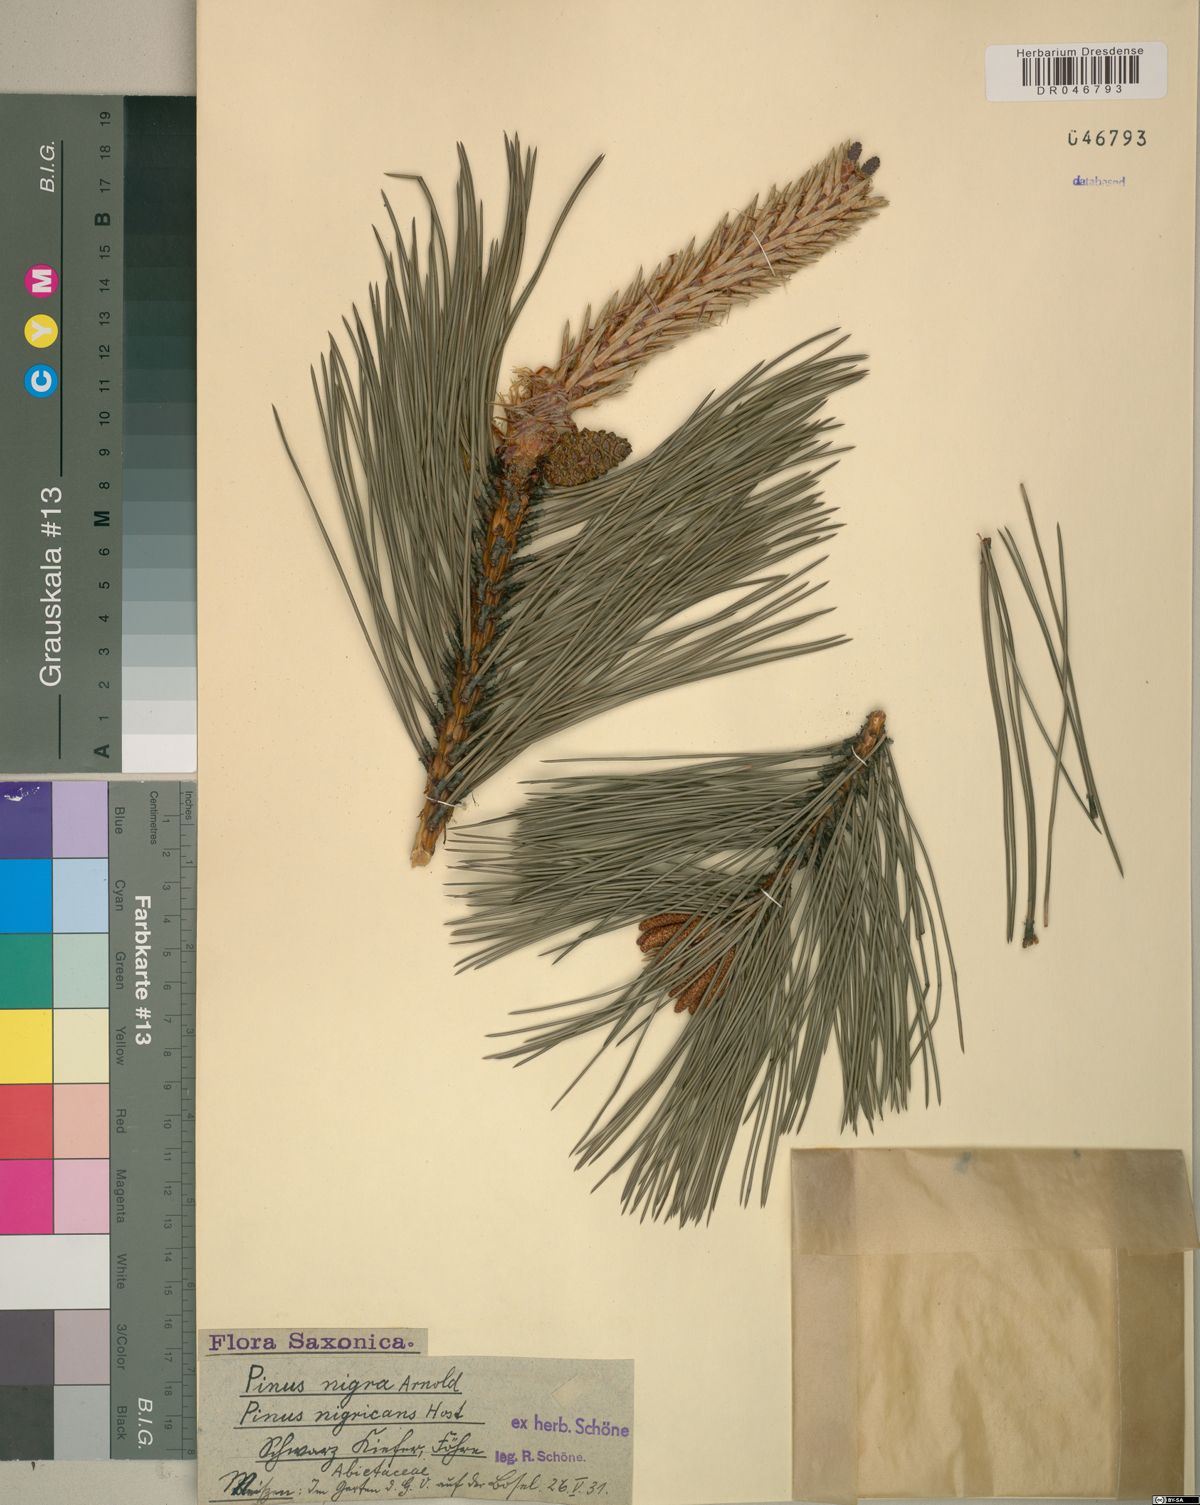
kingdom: Plantae
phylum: Tracheophyta
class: Pinopsida
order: Pinales
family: Pinaceae
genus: Pinus
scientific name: Pinus nigra
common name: Austrian pine
